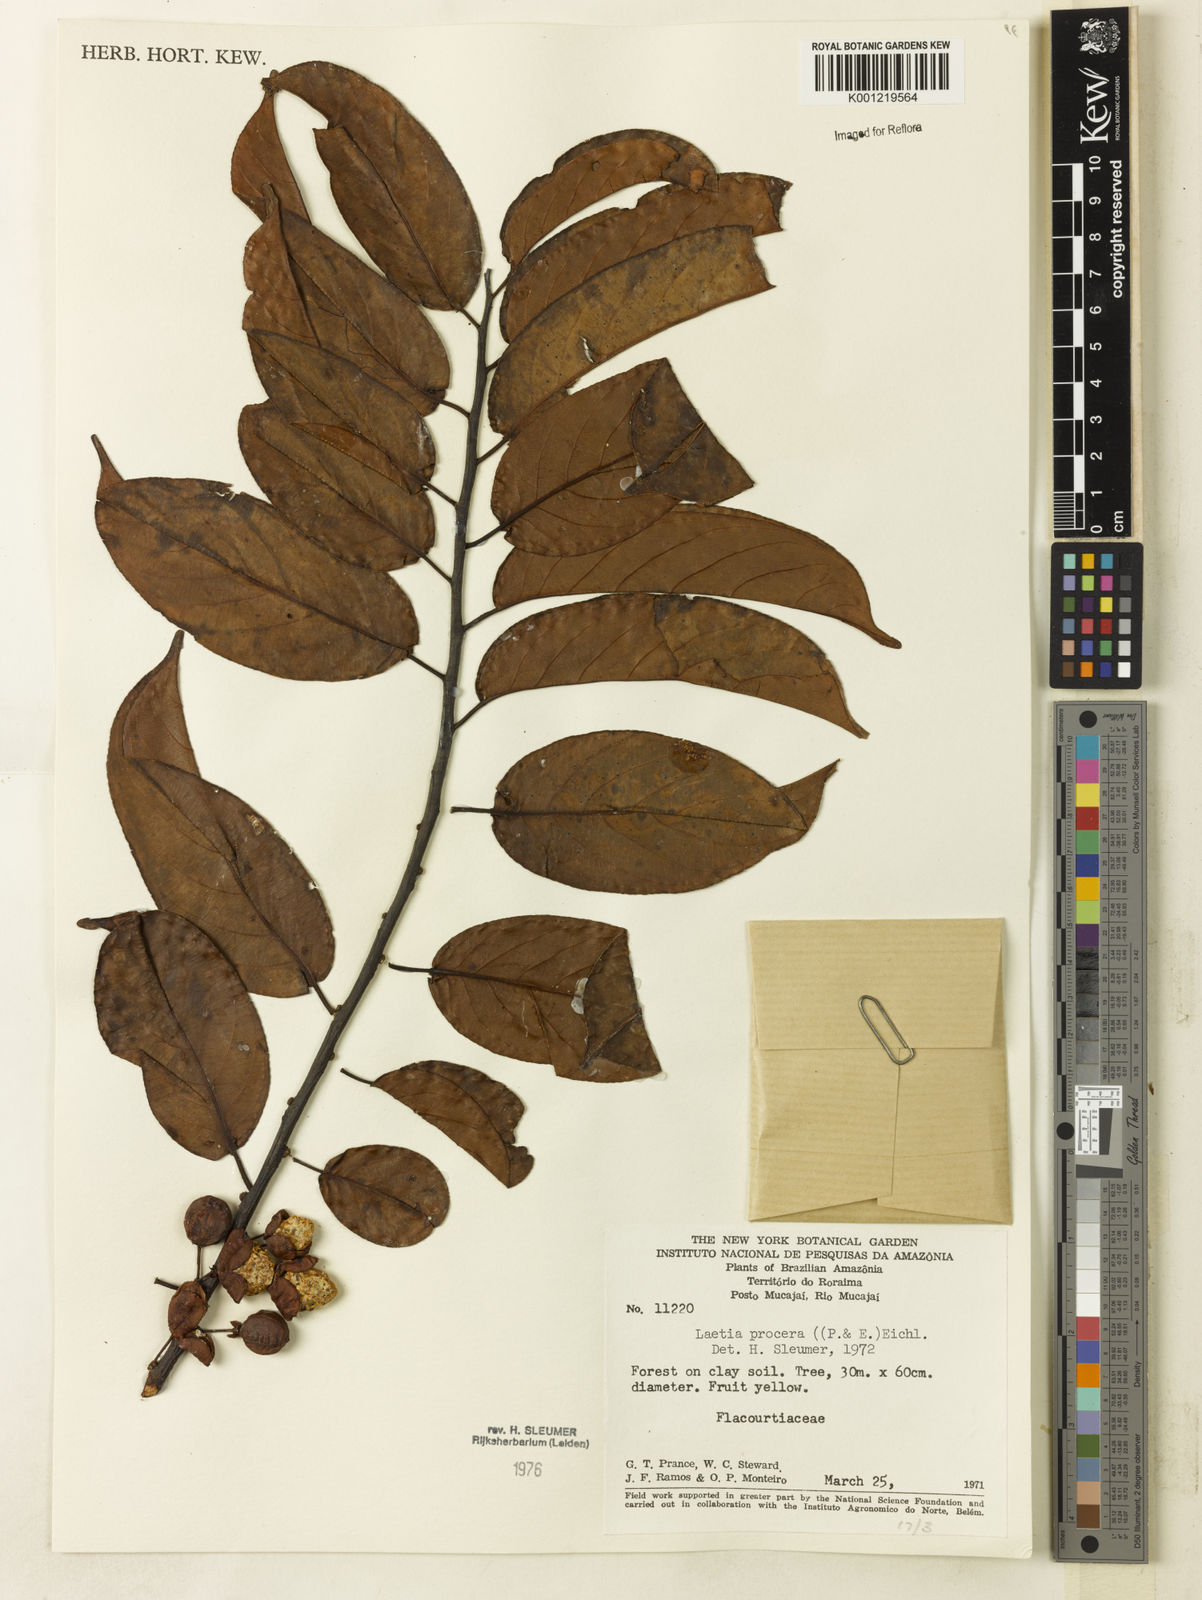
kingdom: Plantae
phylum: Tracheophyta
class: Magnoliopsida
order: Malpighiales
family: Salicaceae
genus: Casearia
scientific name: Casearia bicolor
